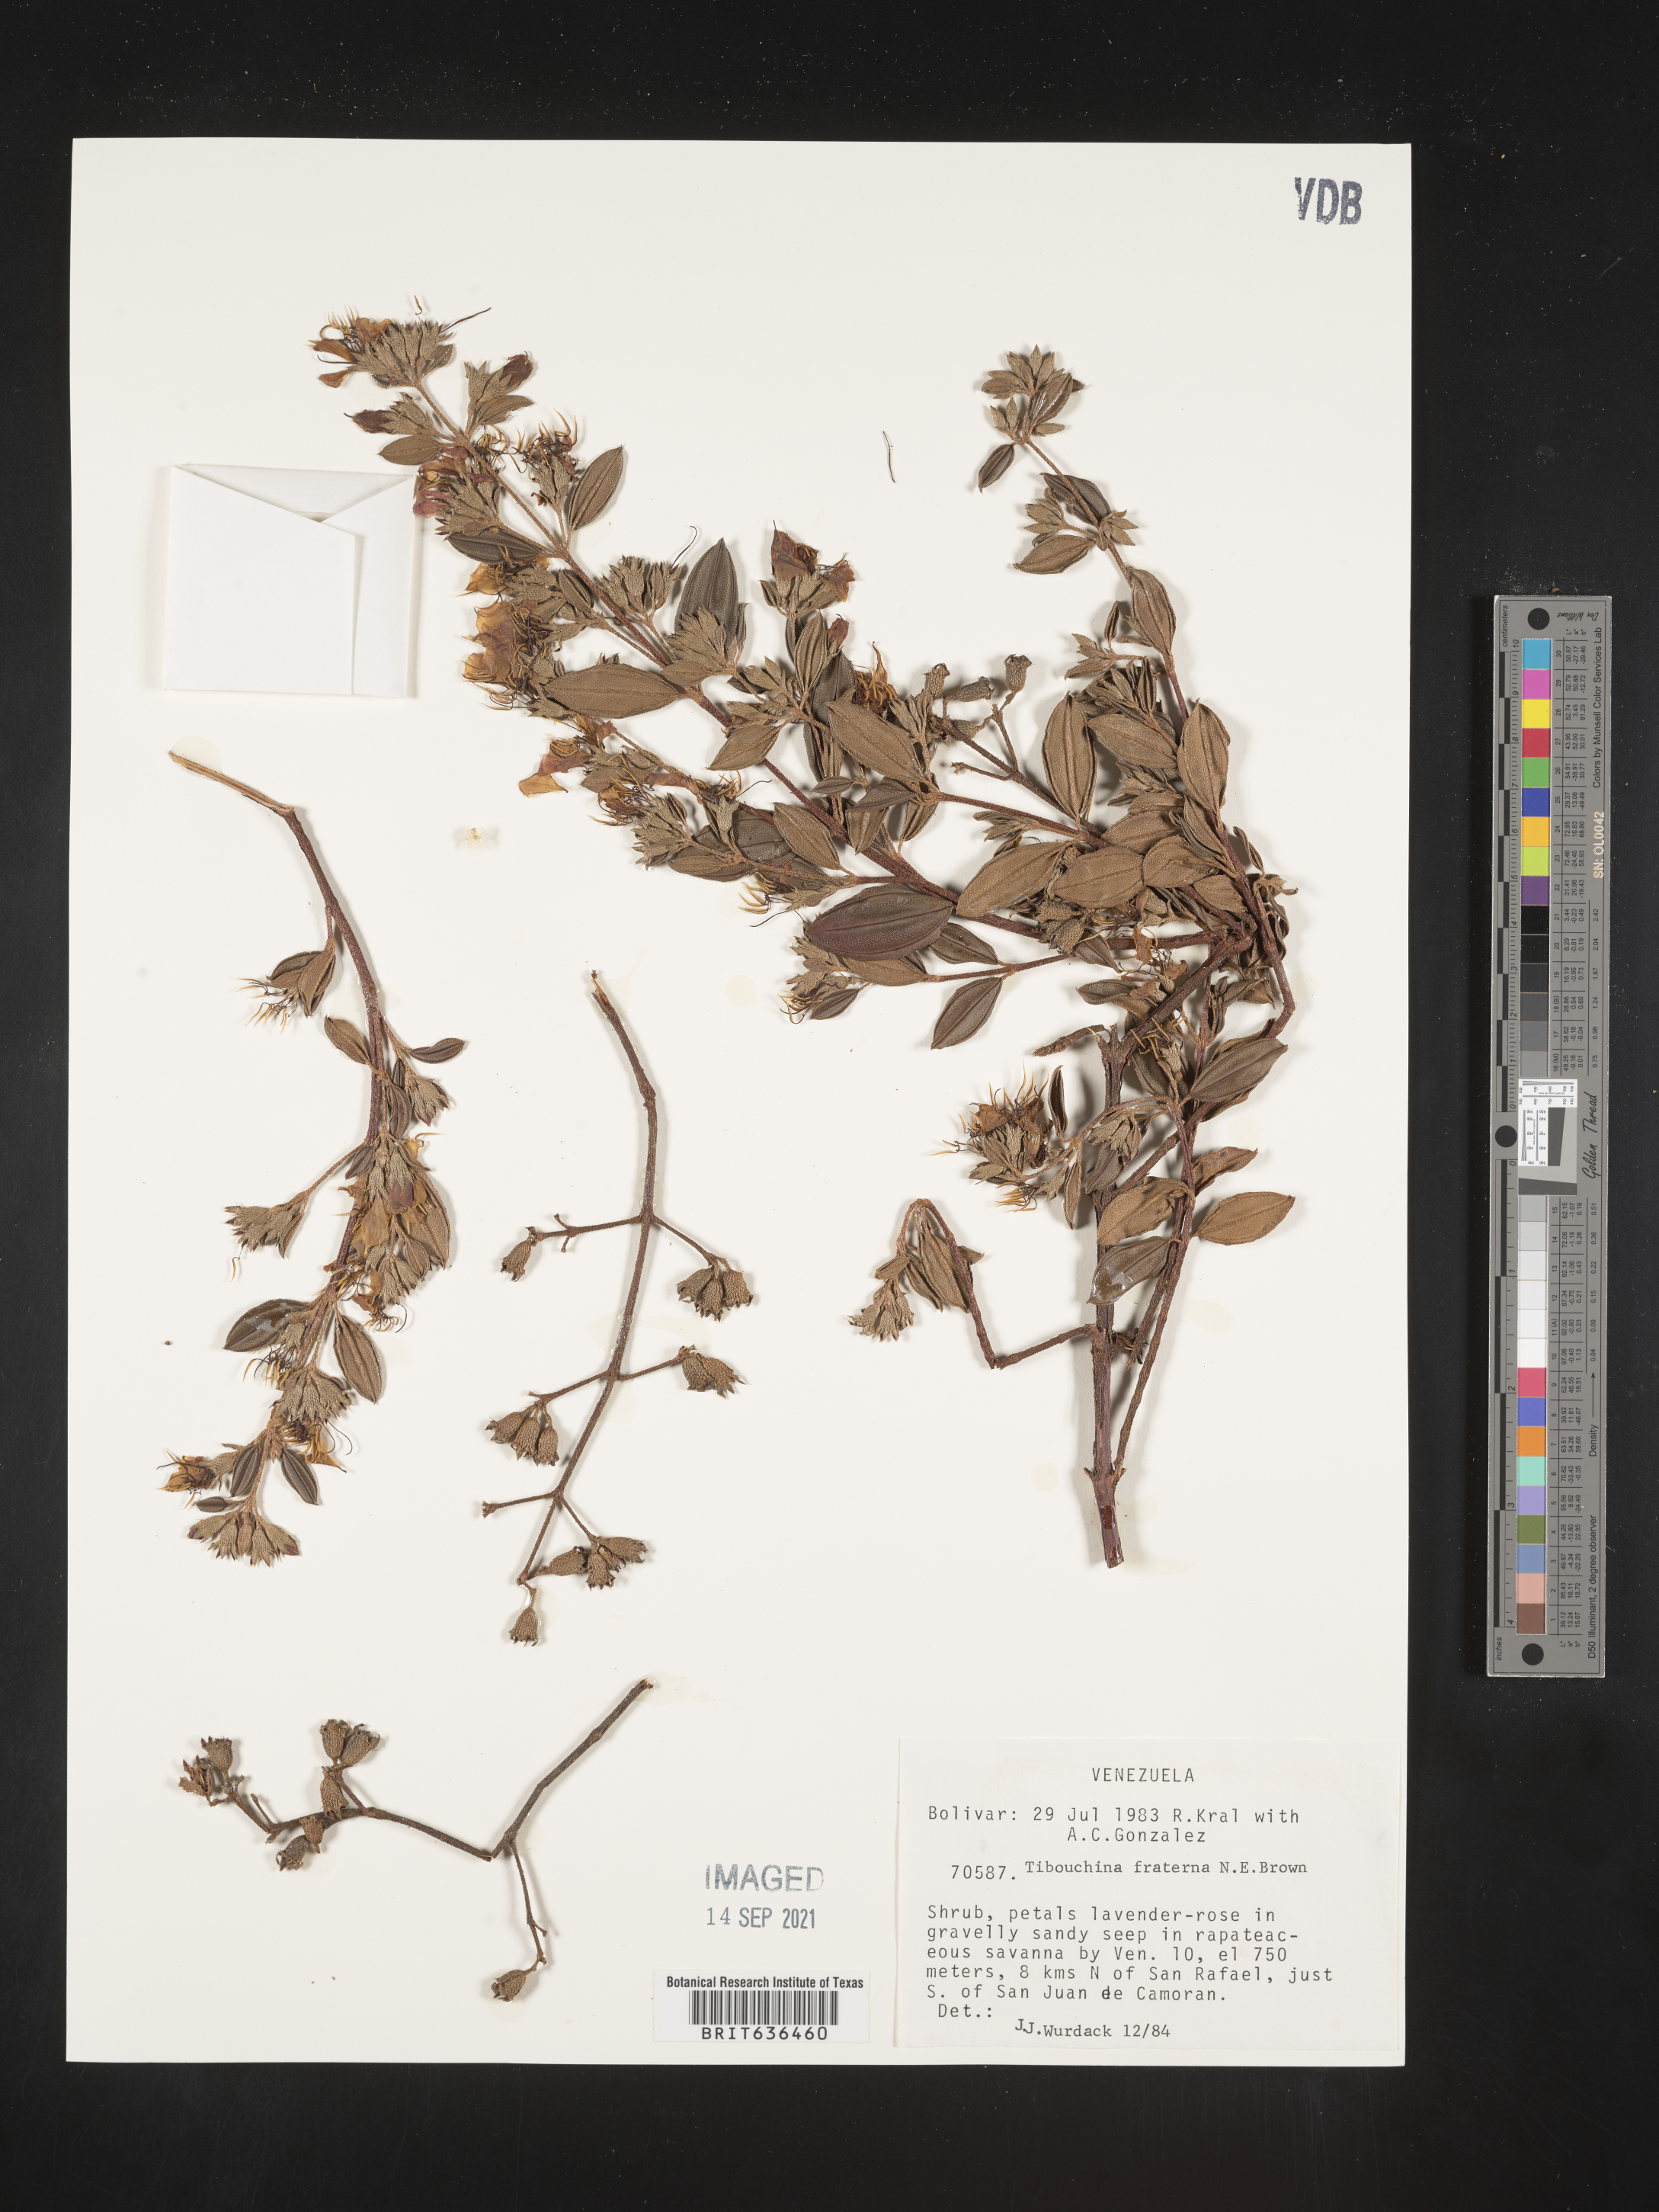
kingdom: Plantae
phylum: Tracheophyta
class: Magnoliopsida
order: Myrtales
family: Melastomataceae
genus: Tibouchina
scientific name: Tibouchina
